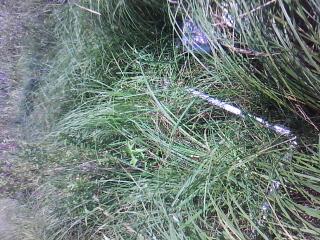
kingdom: Plantae
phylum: Tracheophyta
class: Magnoliopsida
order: Gentianales
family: Rubiaceae
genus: Galium
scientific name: Galium
